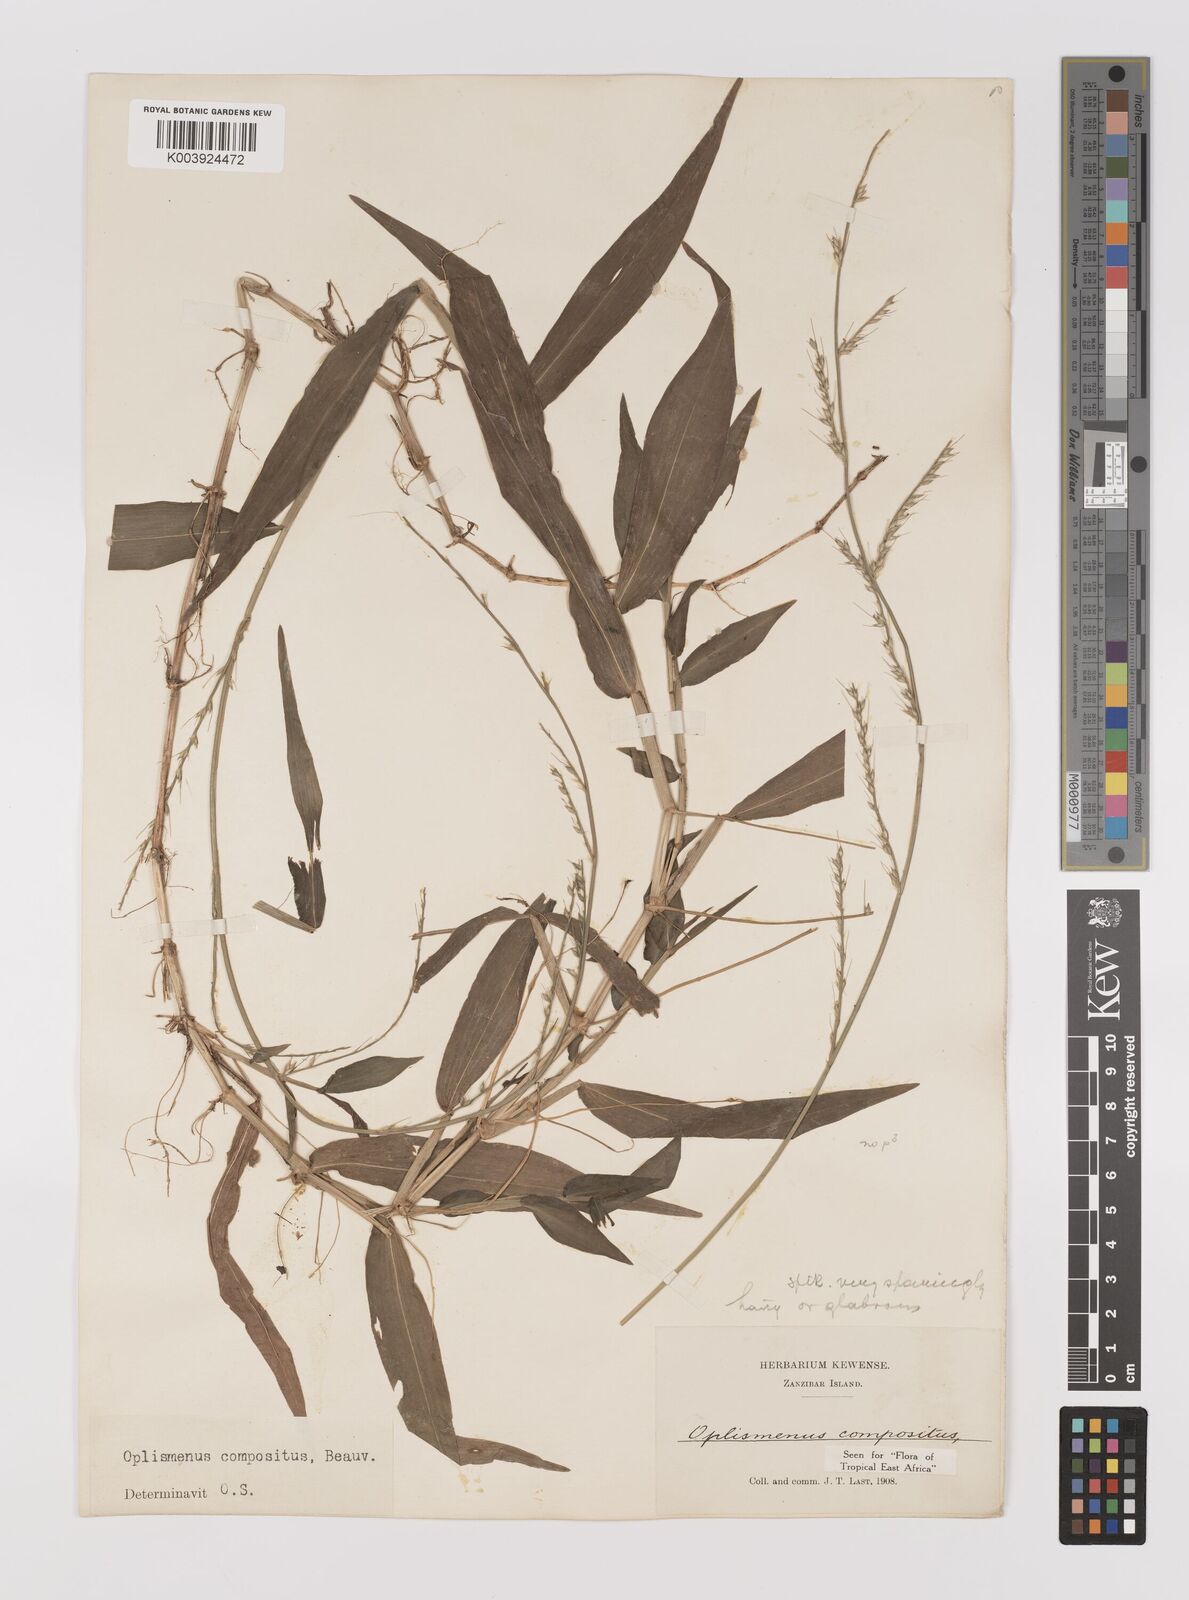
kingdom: Plantae
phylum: Tracheophyta
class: Liliopsida
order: Poales
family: Poaceae
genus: Oplismenus
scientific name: Oplismenus compositus
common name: Running mountain grass
